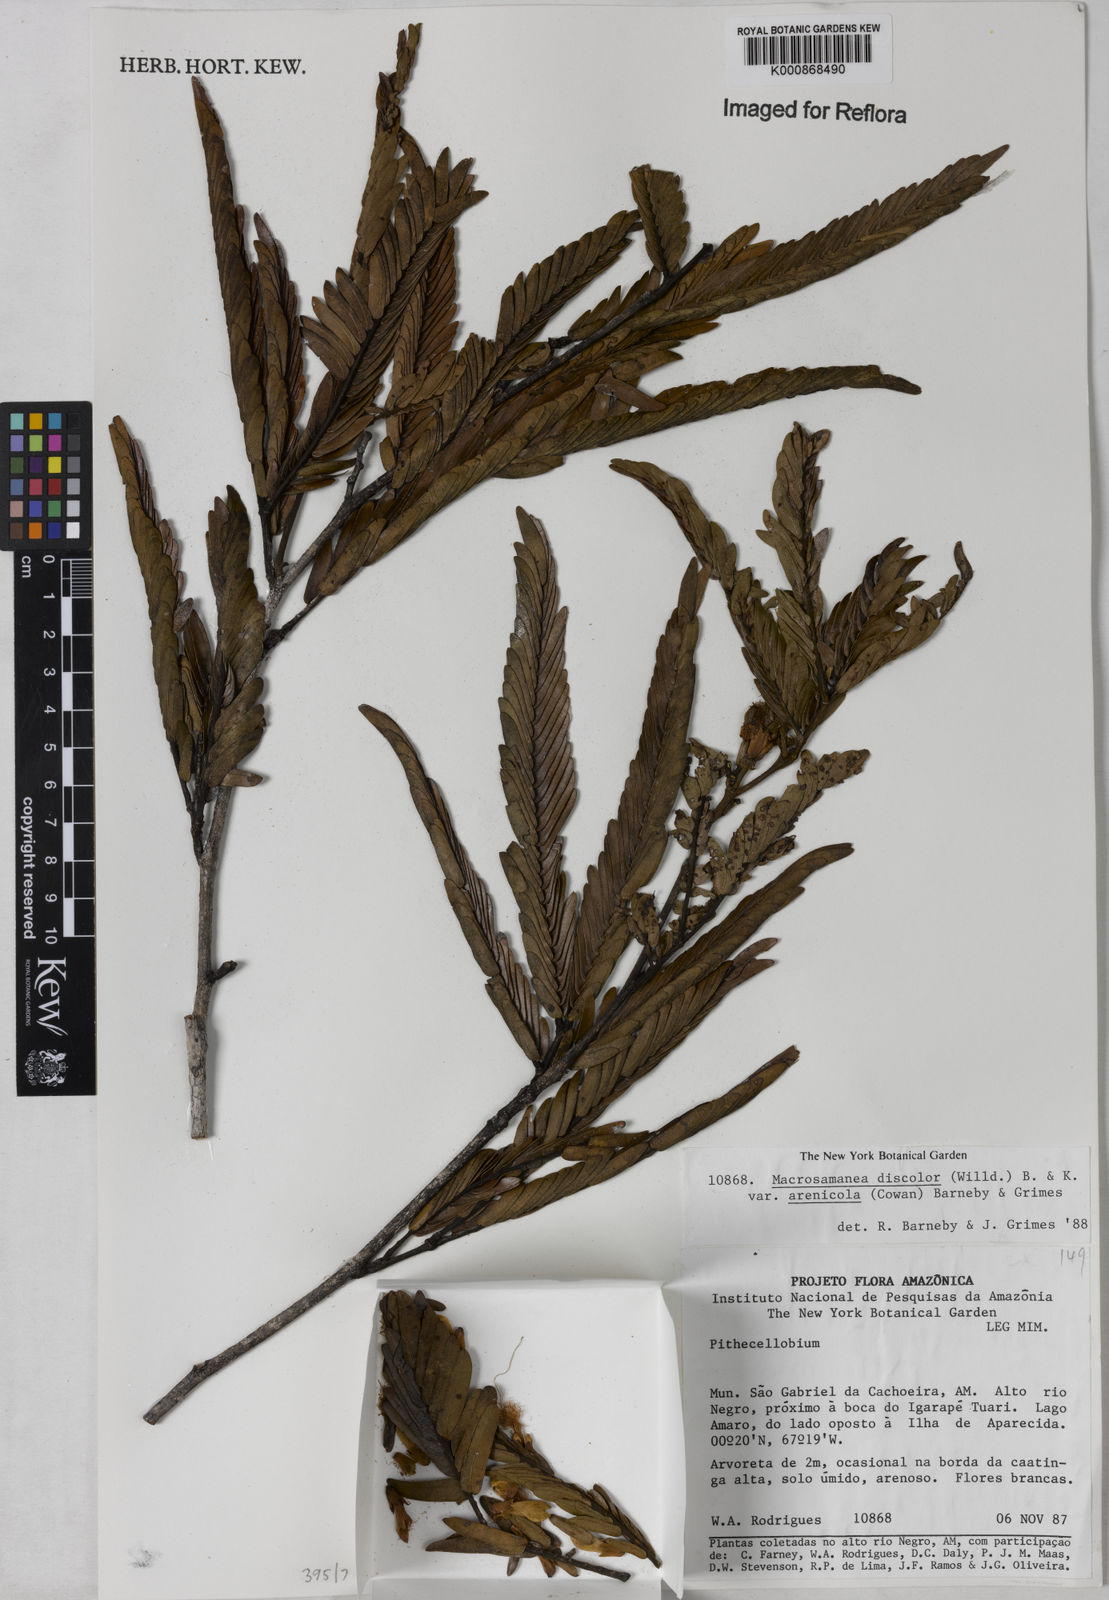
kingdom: Plantae
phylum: Tracheophyta
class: Magnoliopsida
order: Fabales
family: Fabaceae
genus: Macrosamanea
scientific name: Macrosamanea discolor
